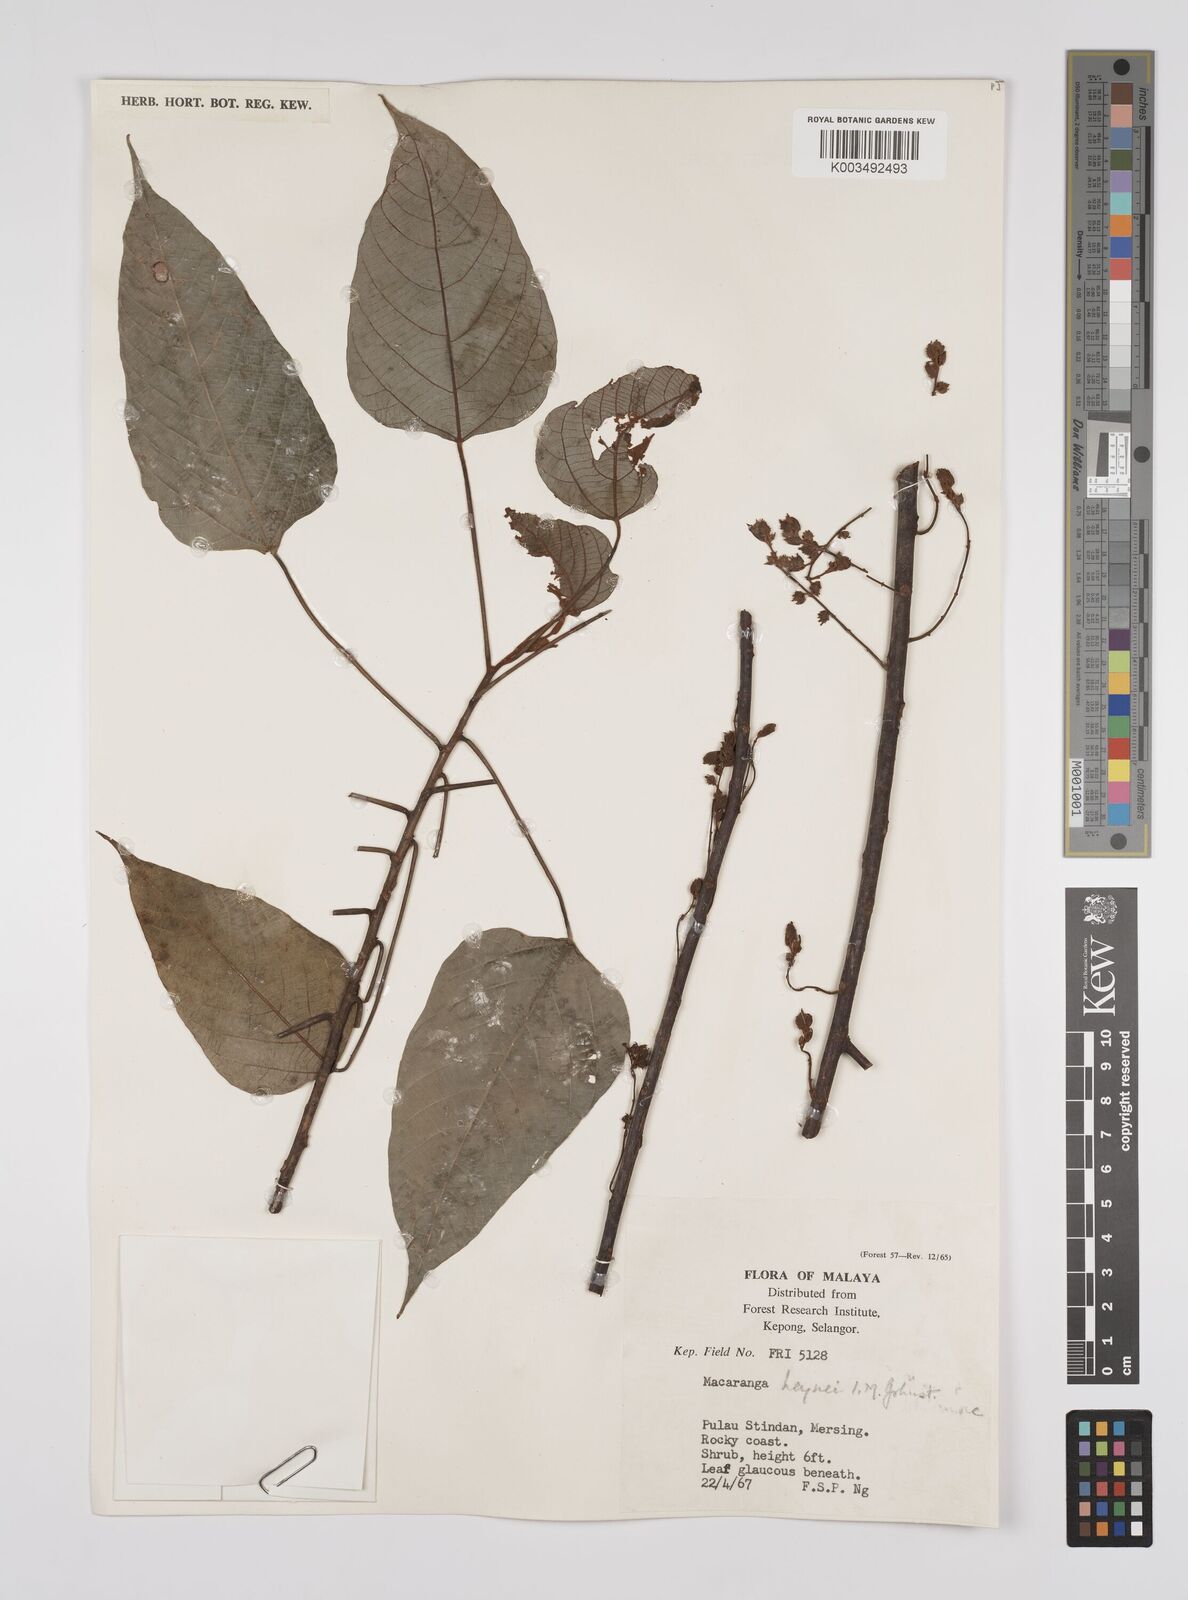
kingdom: Plantae
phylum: Tracheophyta
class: Magnoliopsida
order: Malpighiales
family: Euphorbiaceae
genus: Macaranga
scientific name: Macaranga heynei
